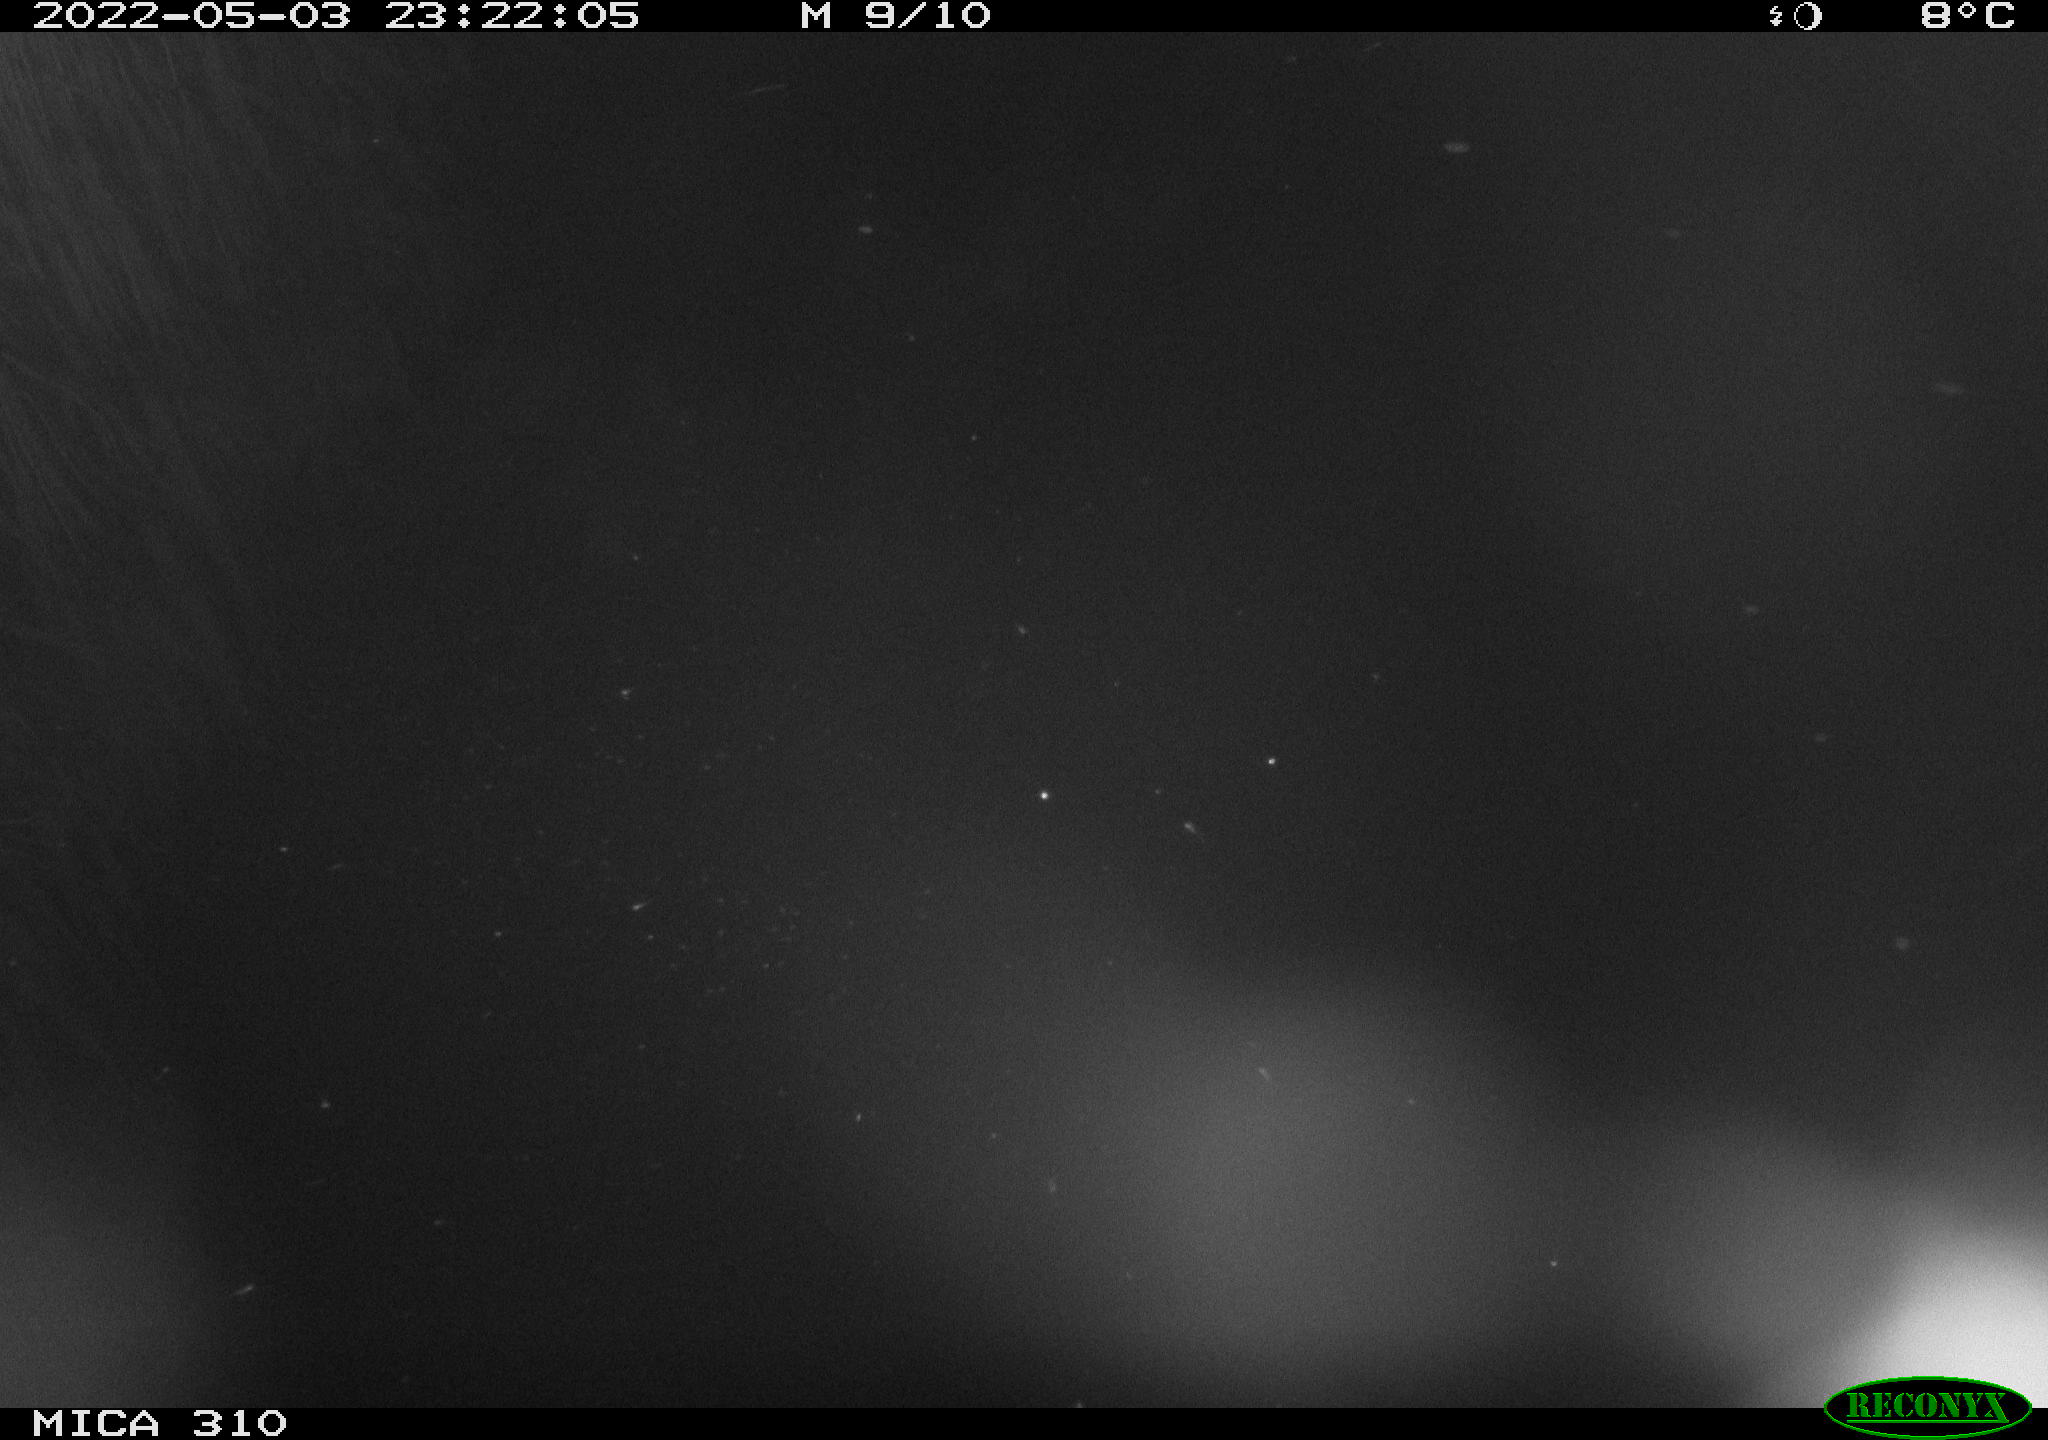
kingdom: Animalia
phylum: Chordata
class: Aves
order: Anseriformes
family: Anatidae
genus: Anas
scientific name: Anas platyrhynchos
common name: Mallard
